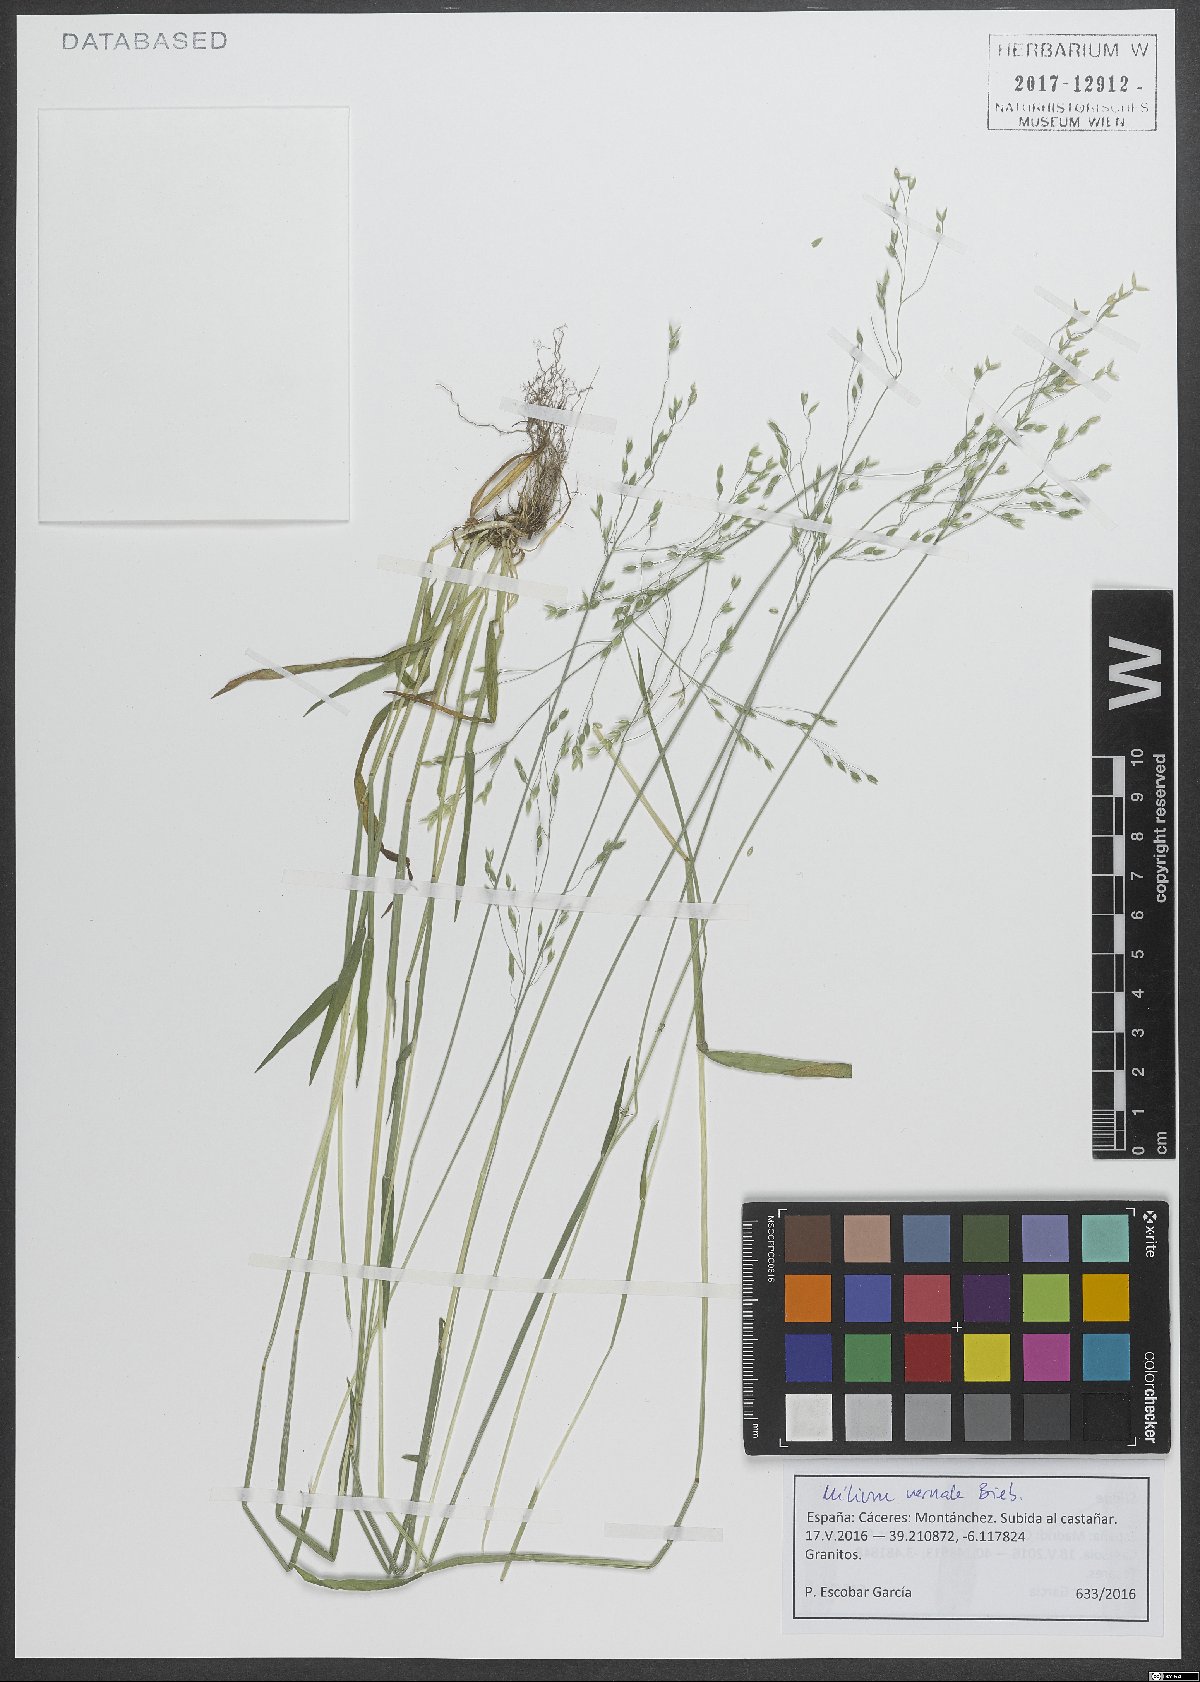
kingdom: Plantae
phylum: Tracheophyta
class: Liliopsida
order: Poales
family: Poaceae
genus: Milium
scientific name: Milium vernale
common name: Early millet
